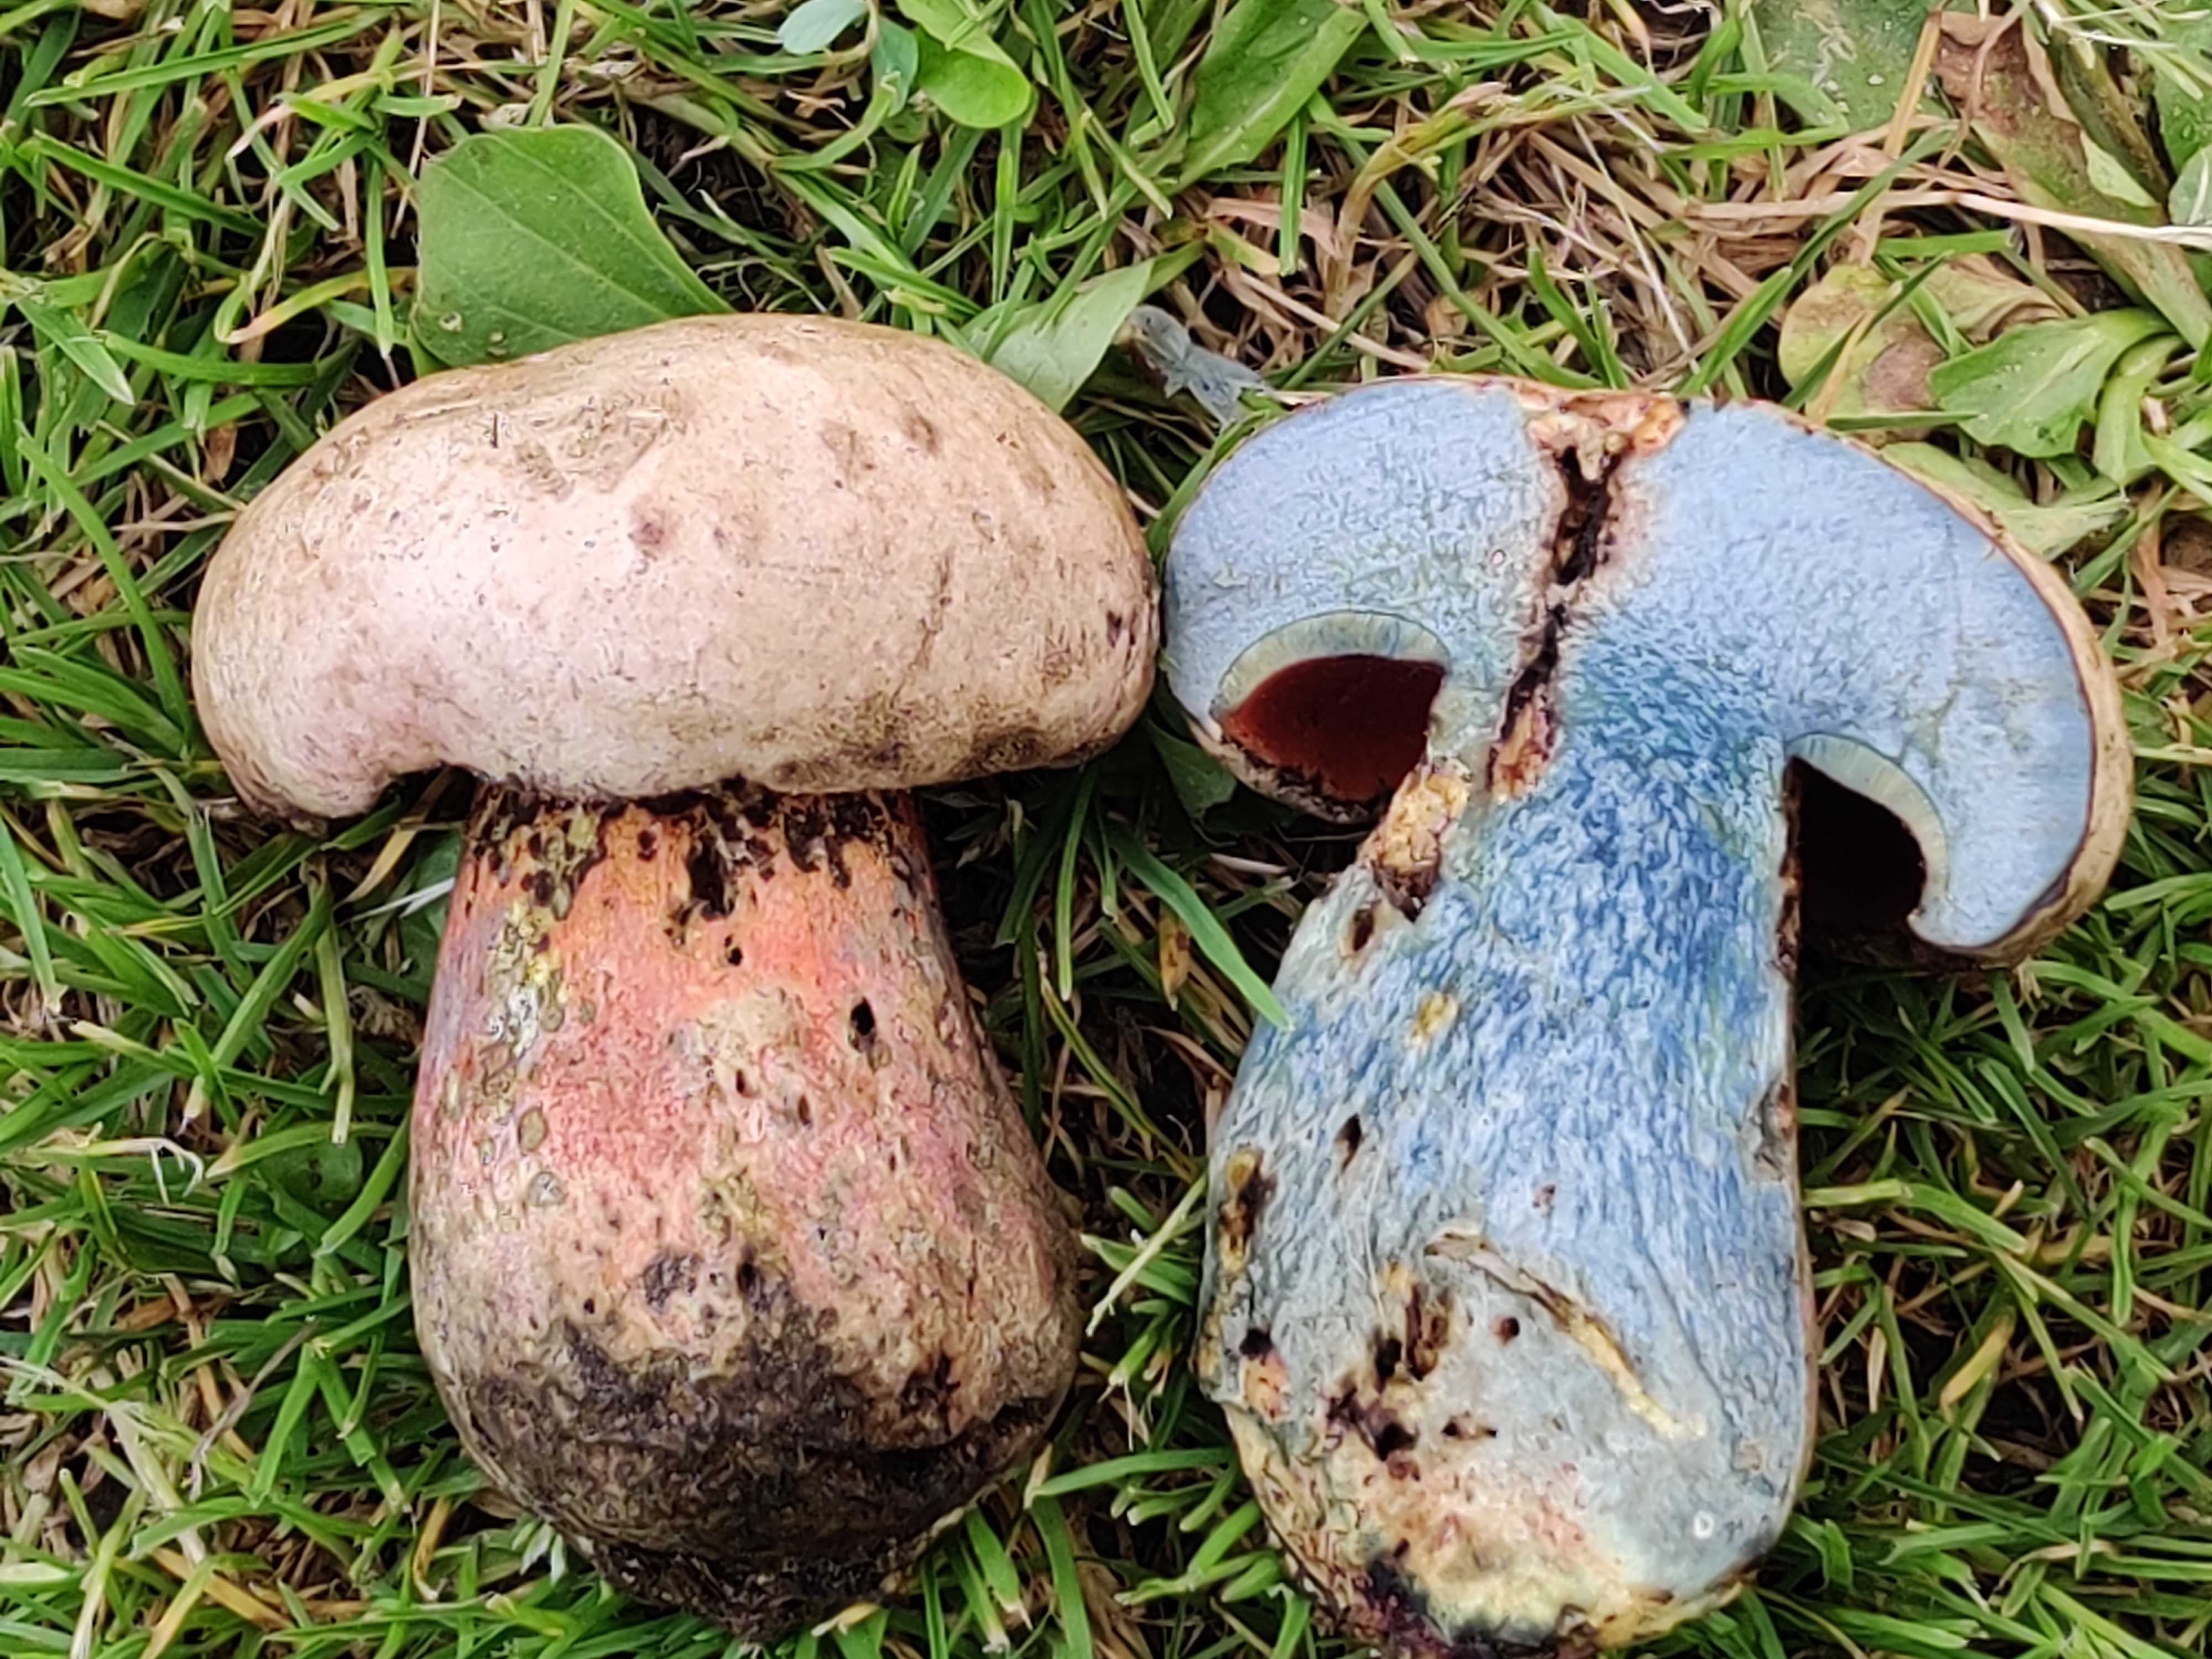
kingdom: Fungi
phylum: Basidiomycota
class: Agaricomycetes
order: Boletales
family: Boletaceae
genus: Rubroboletus
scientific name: Rubroboletus legaliae
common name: djævle-rørhat
